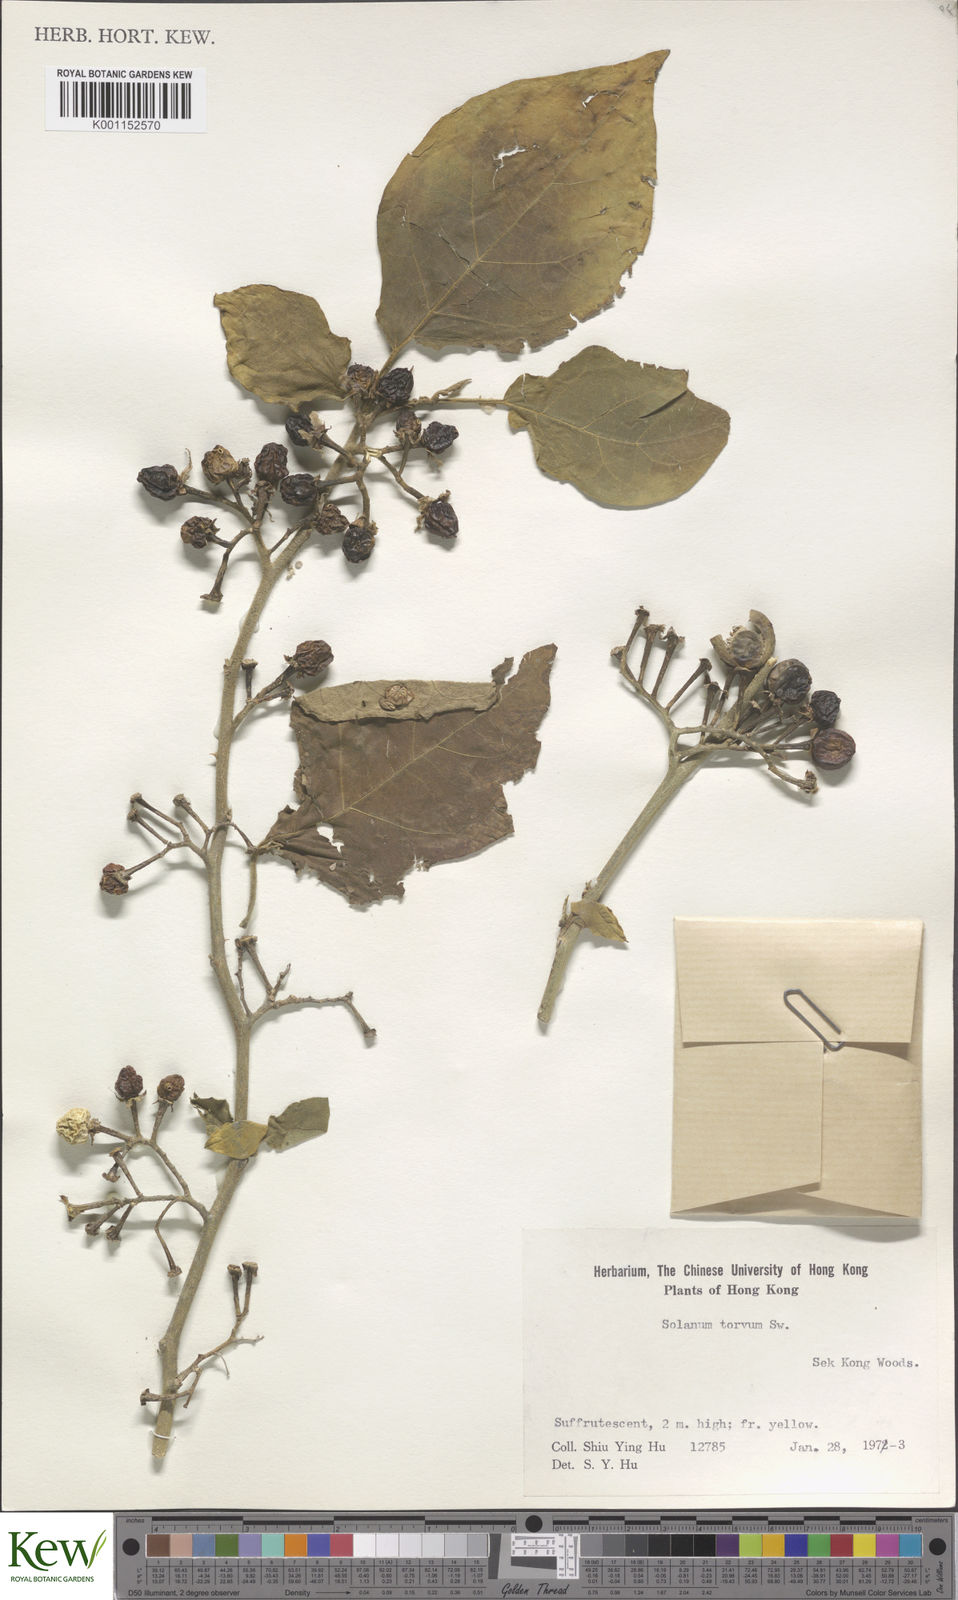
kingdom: Plantae
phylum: Tracheophyta
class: Magnoliopsida
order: Solanales
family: Solanaceae
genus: Solanum
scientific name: Solanum torvum
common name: Turkey berry
